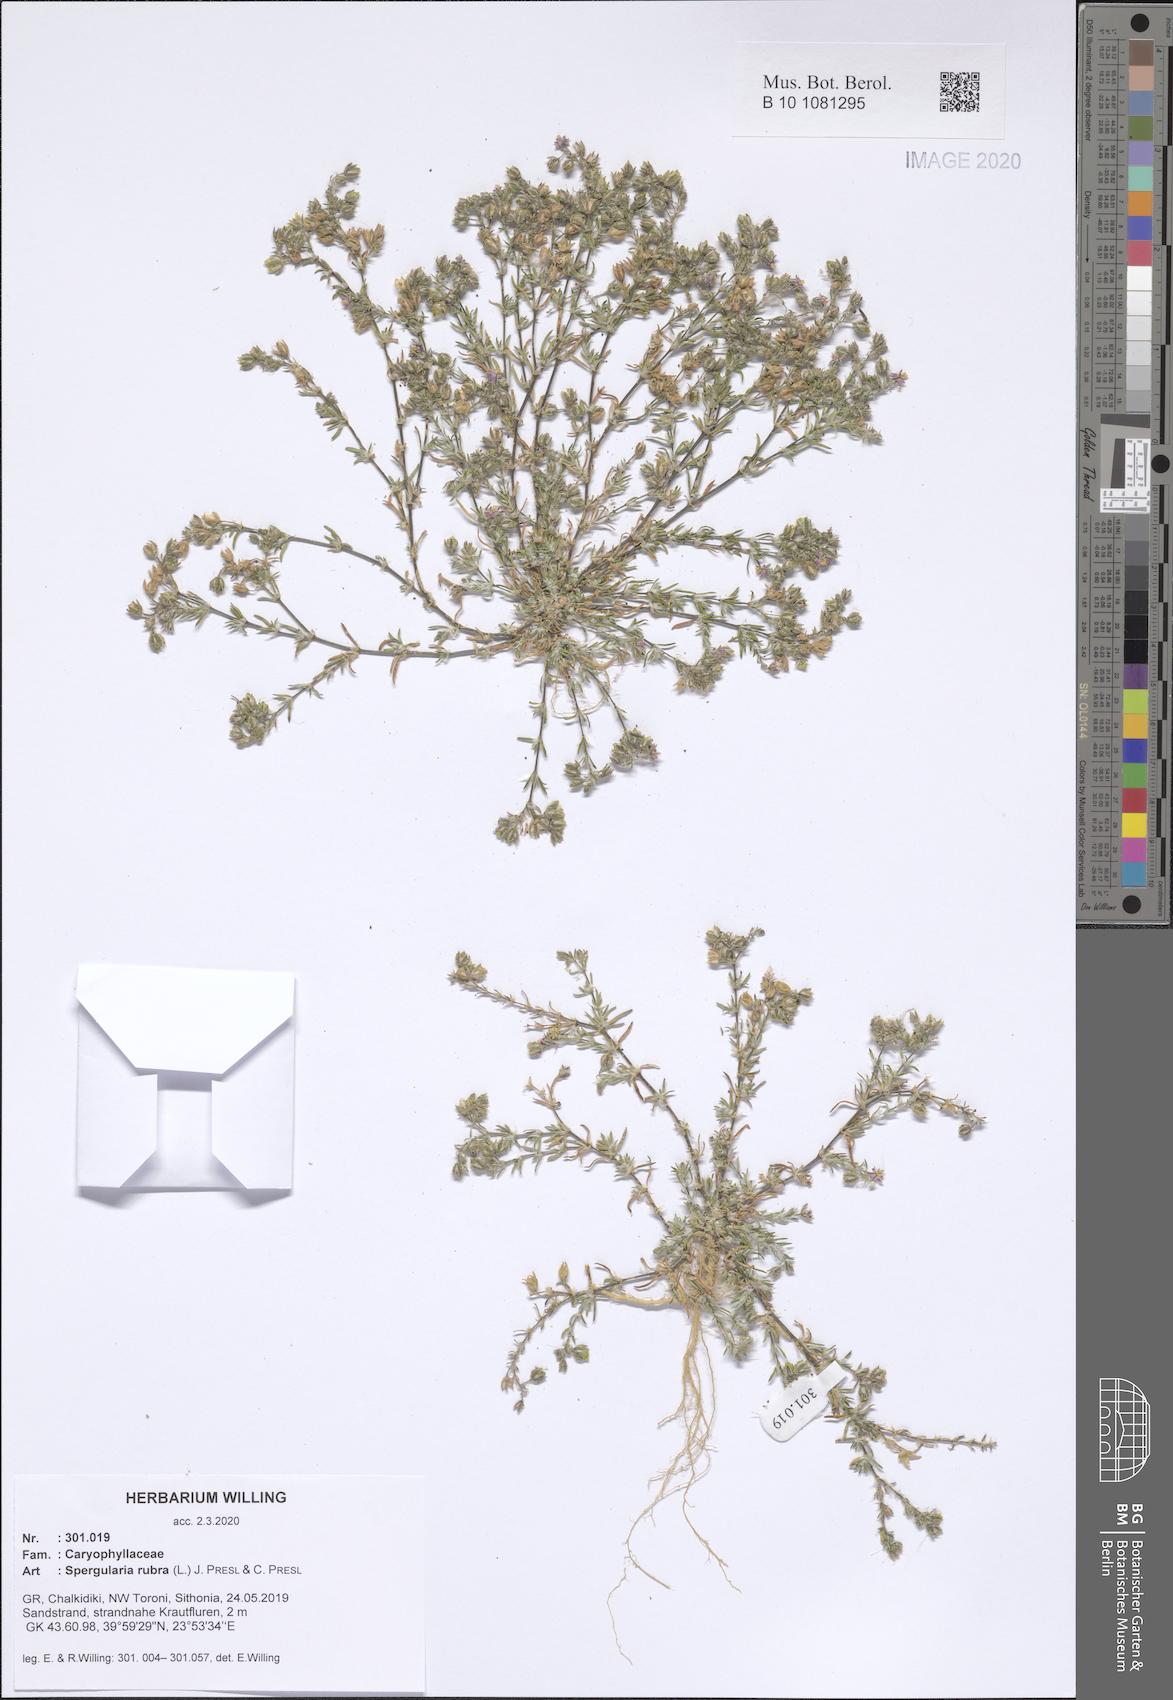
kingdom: Plantae
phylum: Tracheophyta
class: Magnoliopsida
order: Caryophyllales
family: Caryophyllaceae
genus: Spergularia
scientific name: Spergularia rubra
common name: Red sand-spurrey
